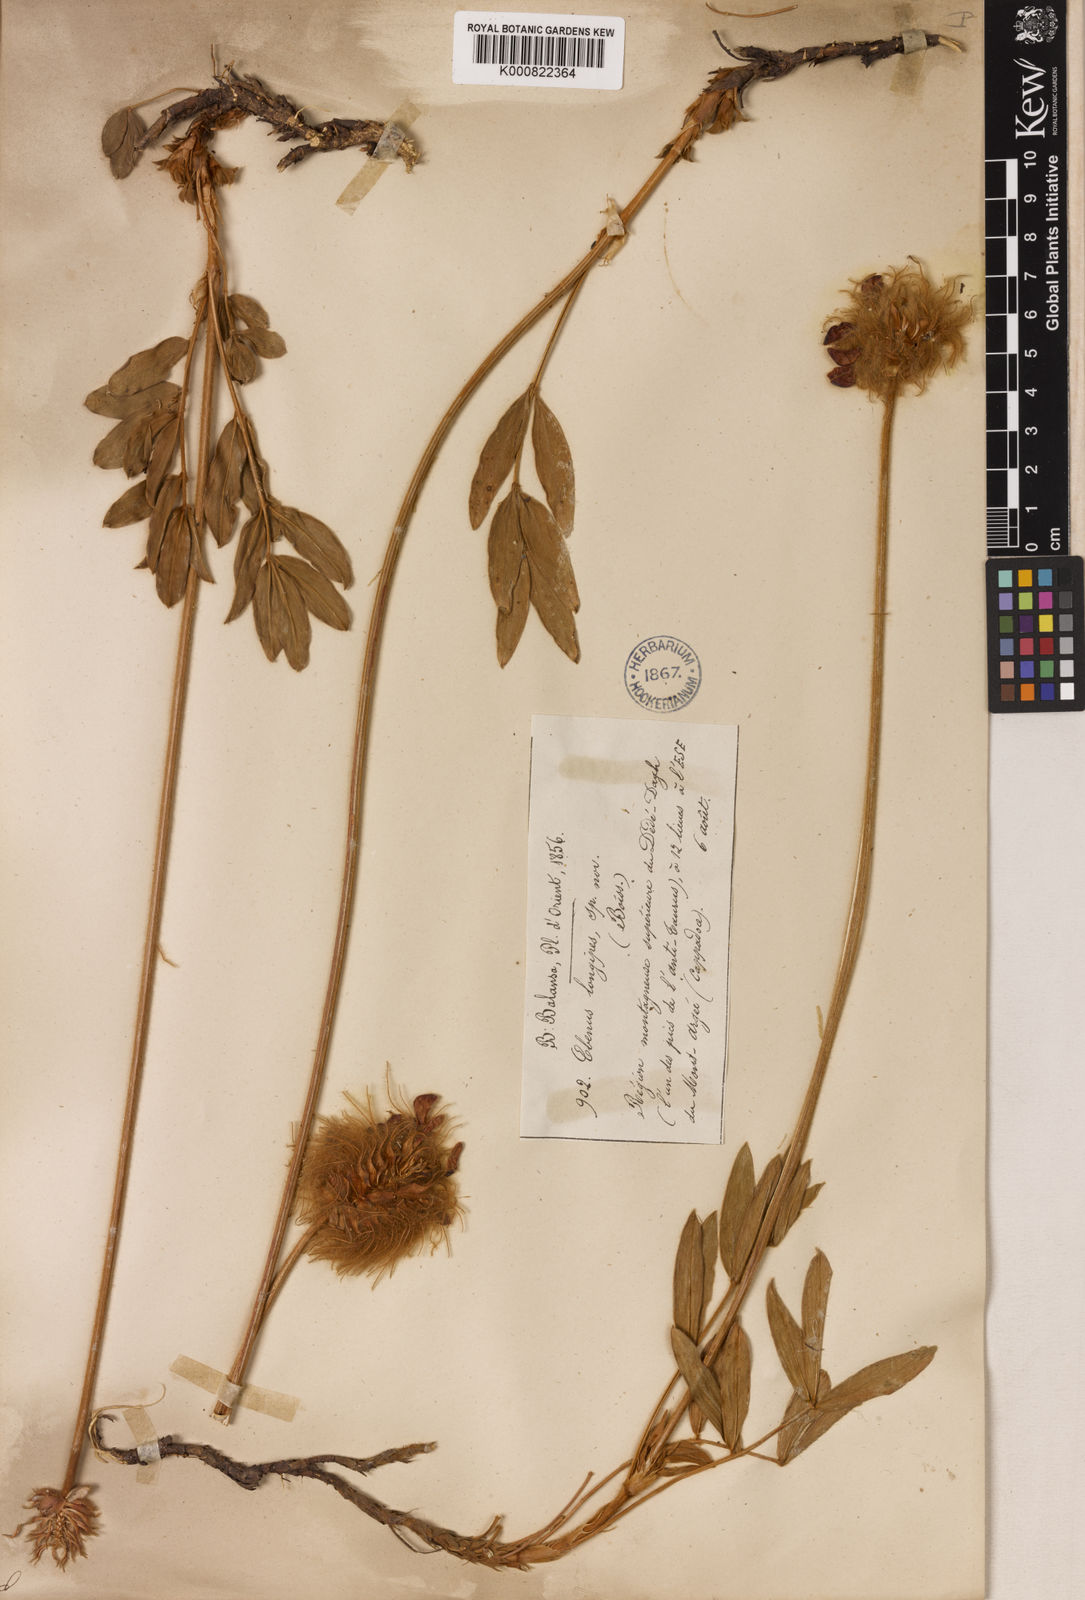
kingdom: Plantae
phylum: Tracheophyta
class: Magnoliopsida
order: Fabales
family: Fabaceae
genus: Ebenus
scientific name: Ebenus longipes
